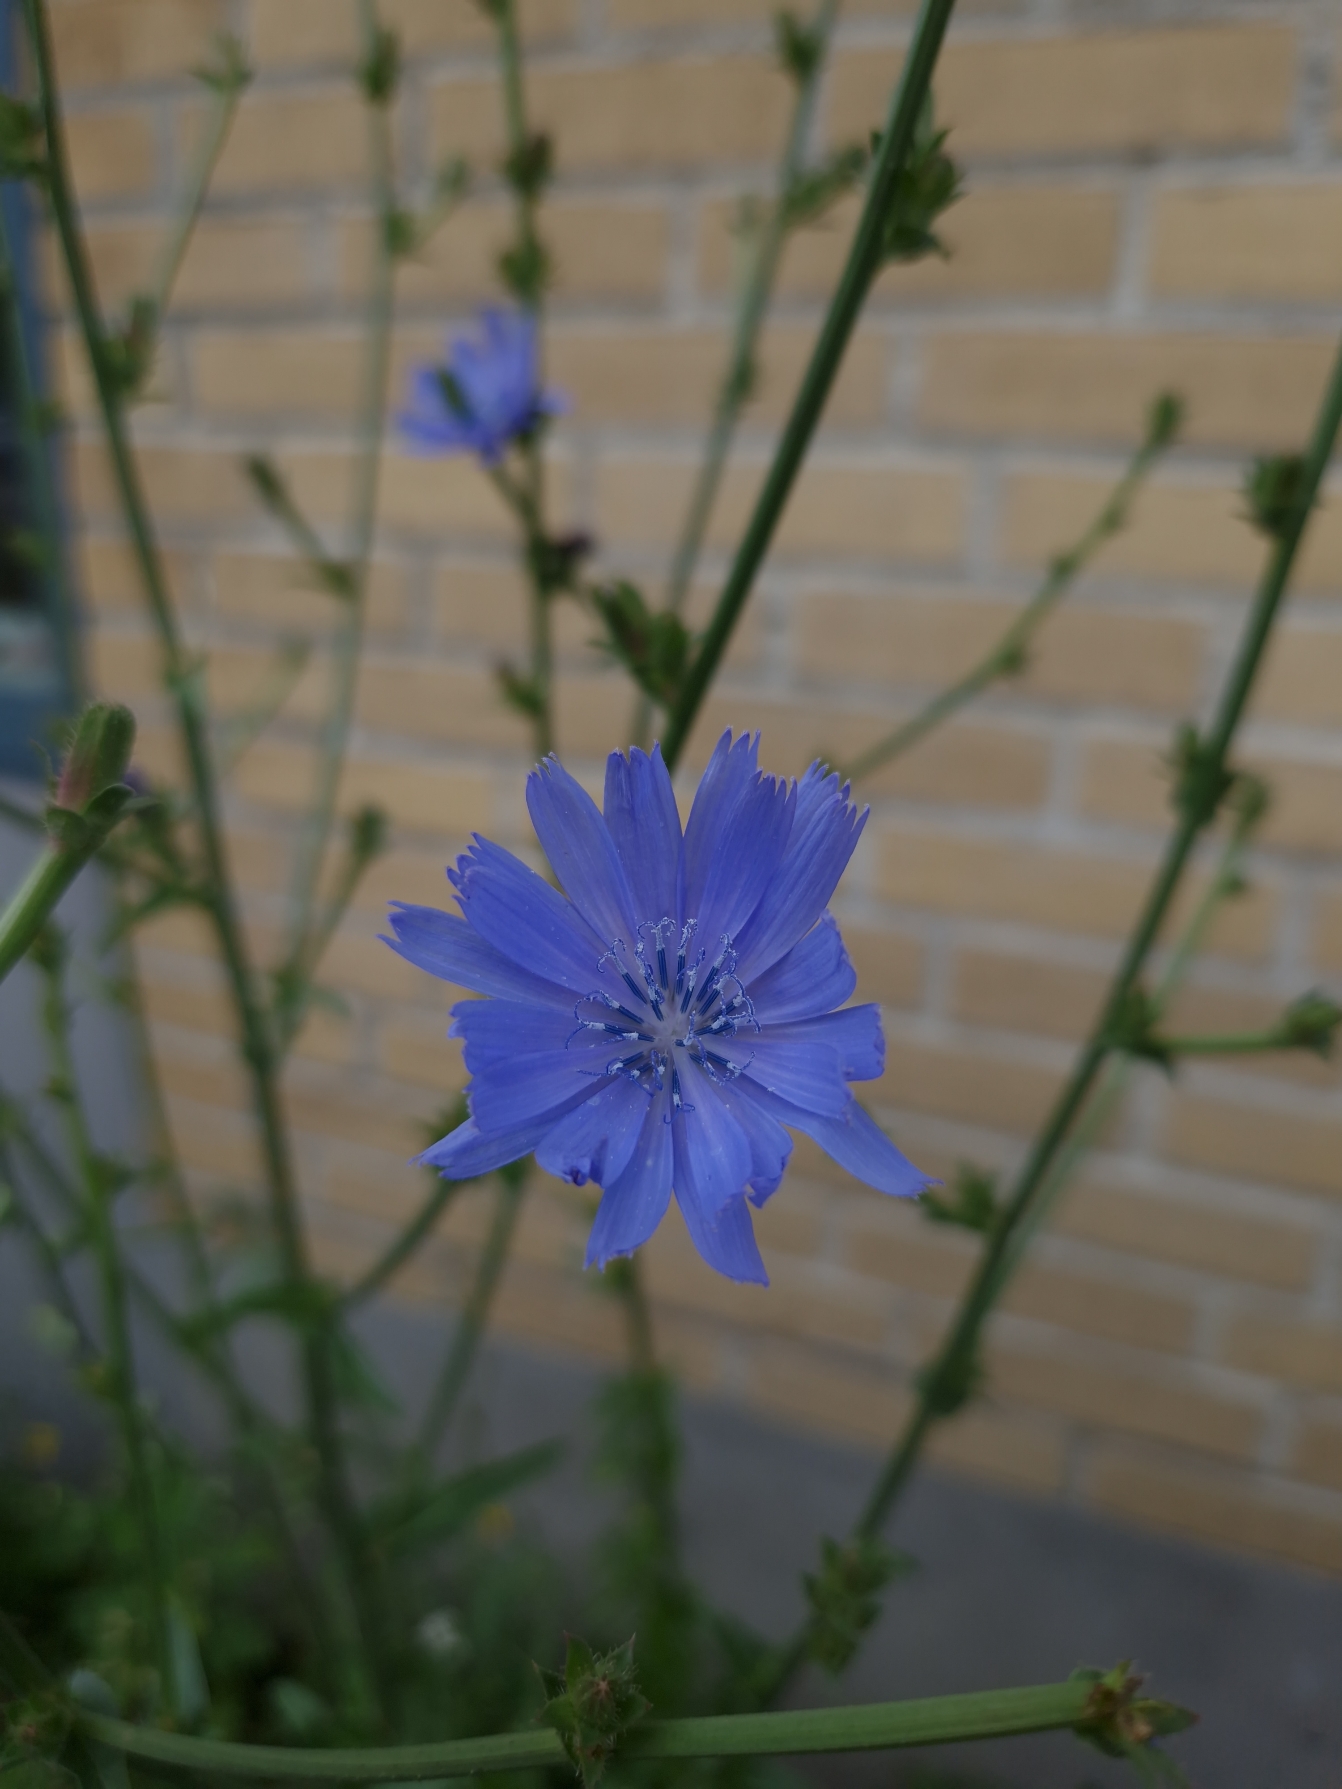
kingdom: Plantae
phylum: Tracheophyta
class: Magnoliopsida
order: Asterales
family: Asteraceae
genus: Cichorium
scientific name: Cichorium intybus
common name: Cikorie
